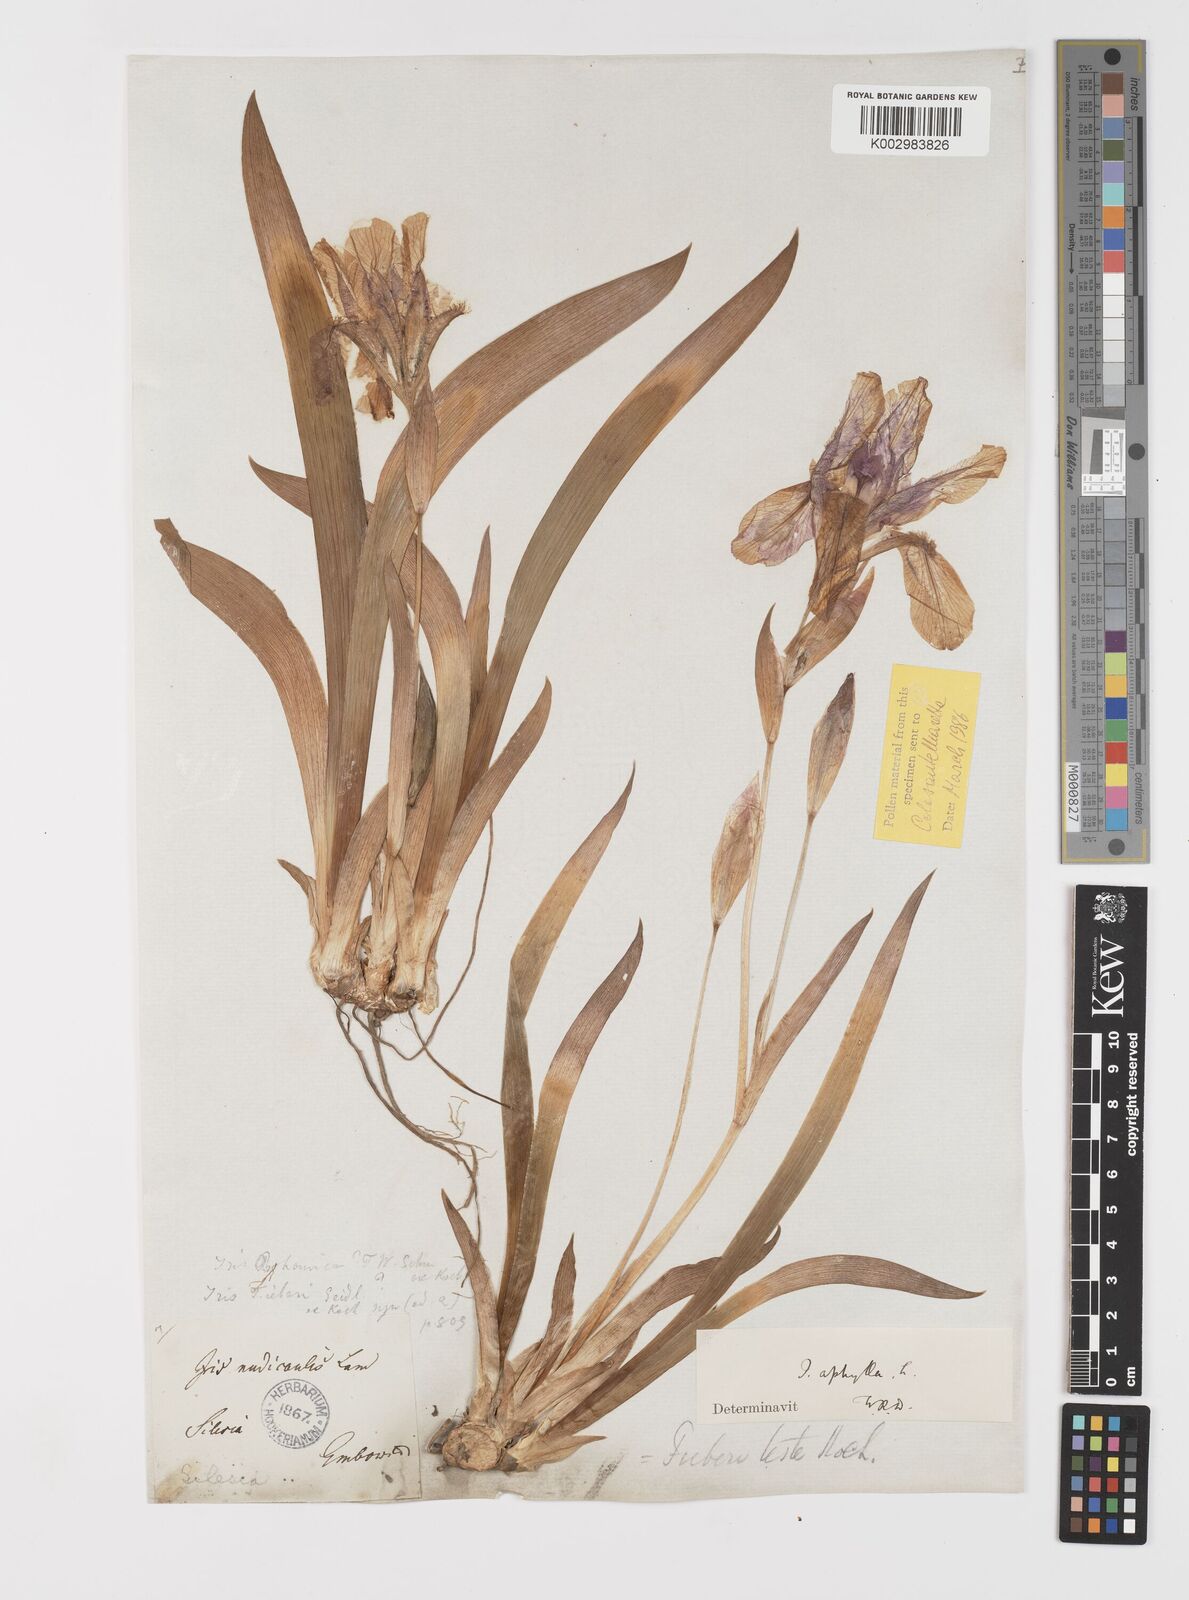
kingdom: Plantae
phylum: Tracheophyta
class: Liliopsida
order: Asparagales
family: Iridaceae
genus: Iris
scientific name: Iris aphylla
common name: Stool iris
